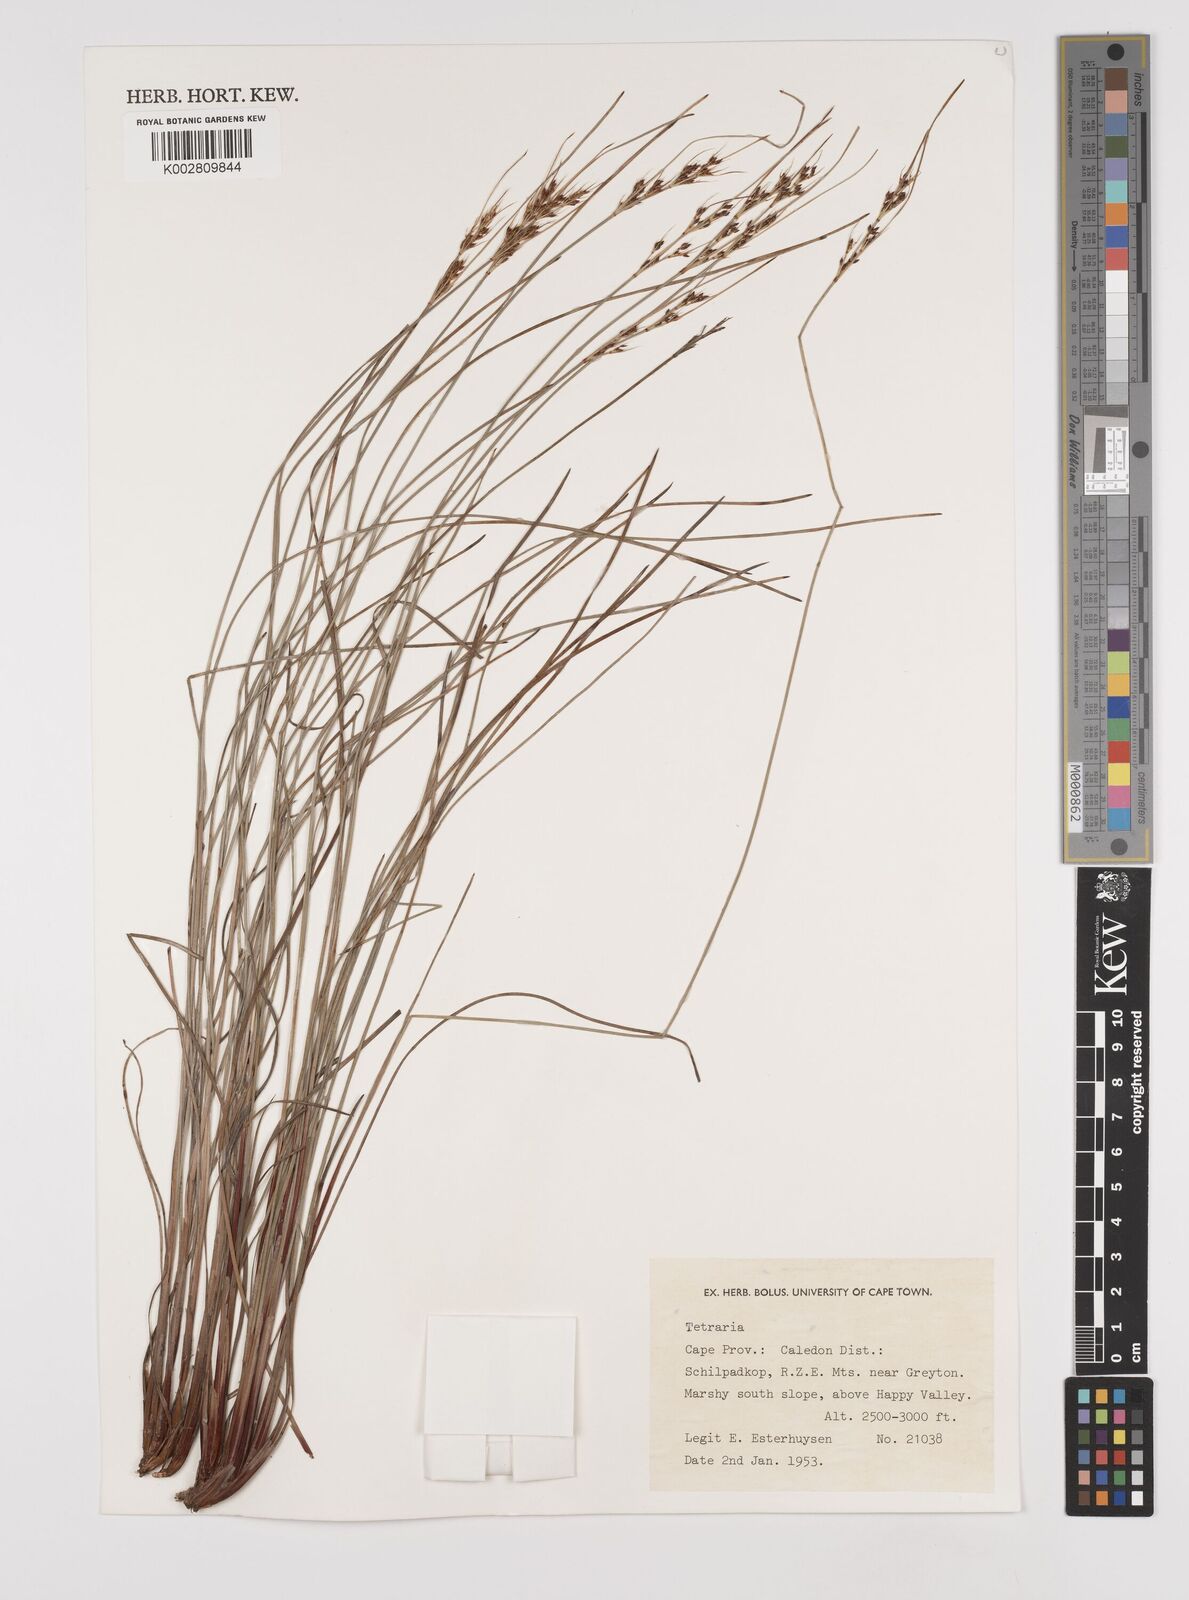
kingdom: Plantae
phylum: Tracheophyta
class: Liliopsida
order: Poales
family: Cyperaceae
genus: Schoenus
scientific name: Schoenus
